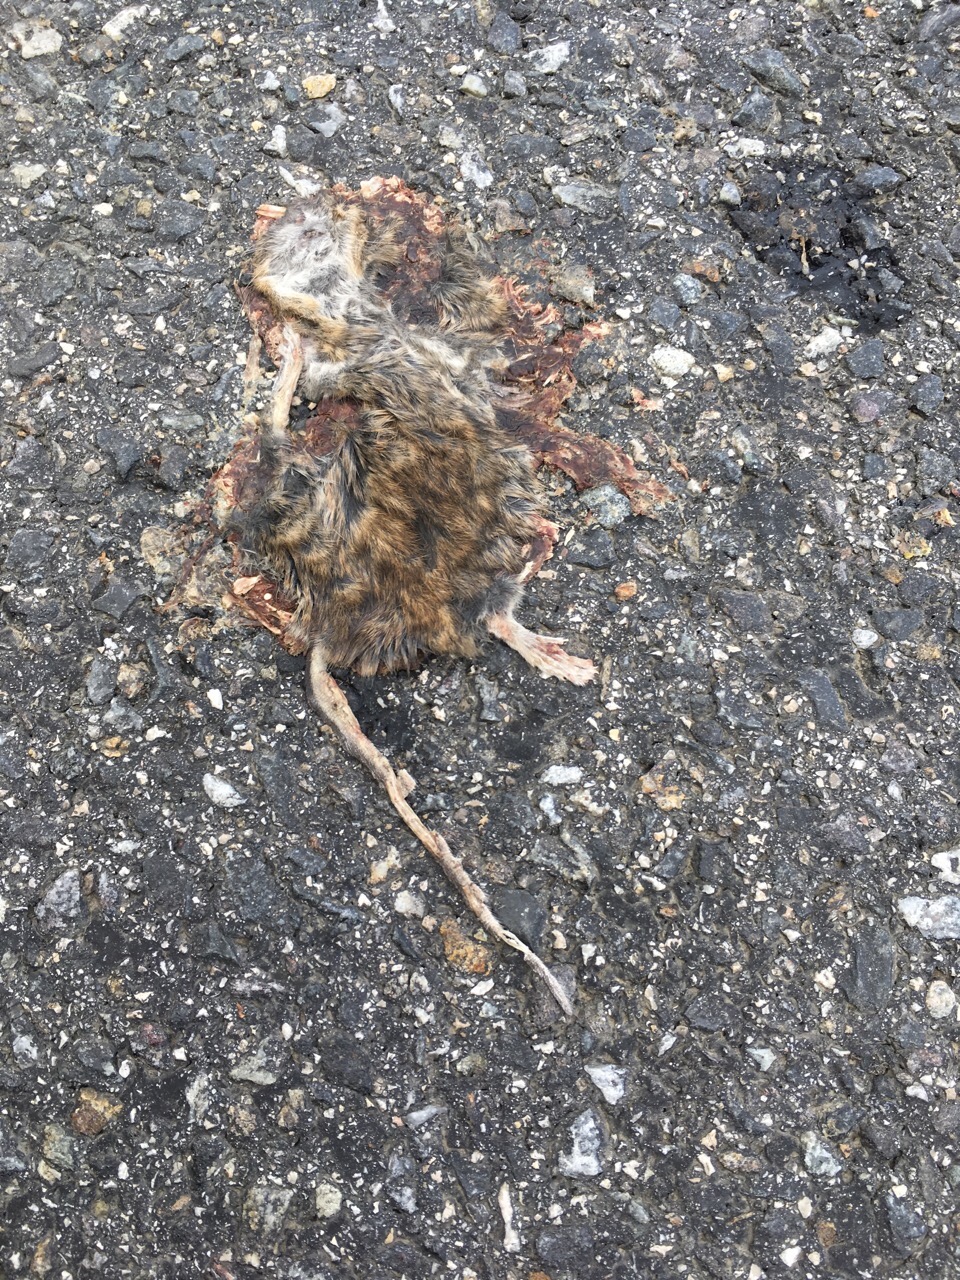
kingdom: Animalia
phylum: Chordata
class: Mammalia
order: Rodentia
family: Muridae
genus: Apodemus
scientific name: Apodemus
